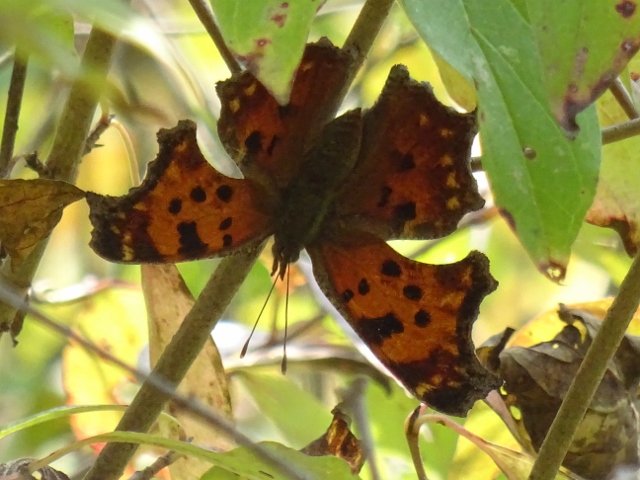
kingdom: Animalia
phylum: Arthropoda
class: Insecta
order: Lepidoptera
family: Nymphalidae
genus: Polygonia
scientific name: Polygonia comma
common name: Eastern Comma
